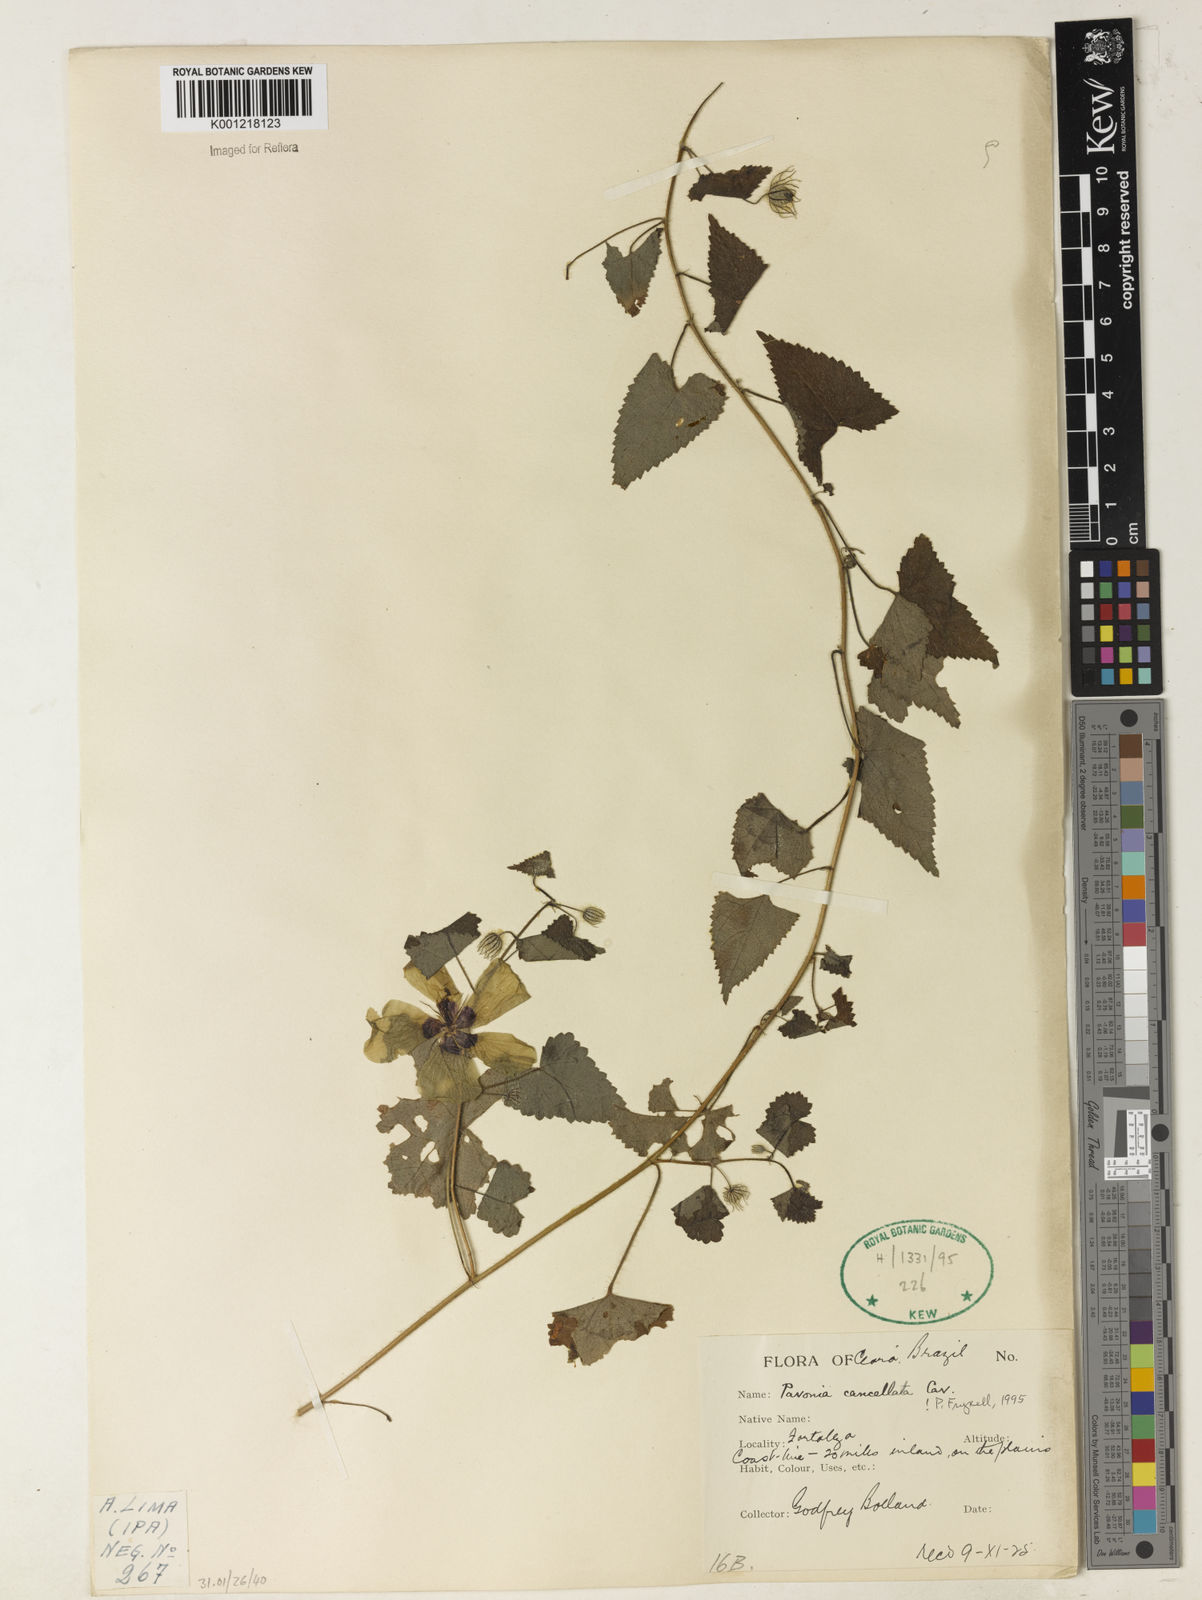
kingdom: Plantae
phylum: Tracheophyta
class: Magnoliopsida
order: Malvales
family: Malvaceae
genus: Pavonia
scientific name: Pavonia cancellata
